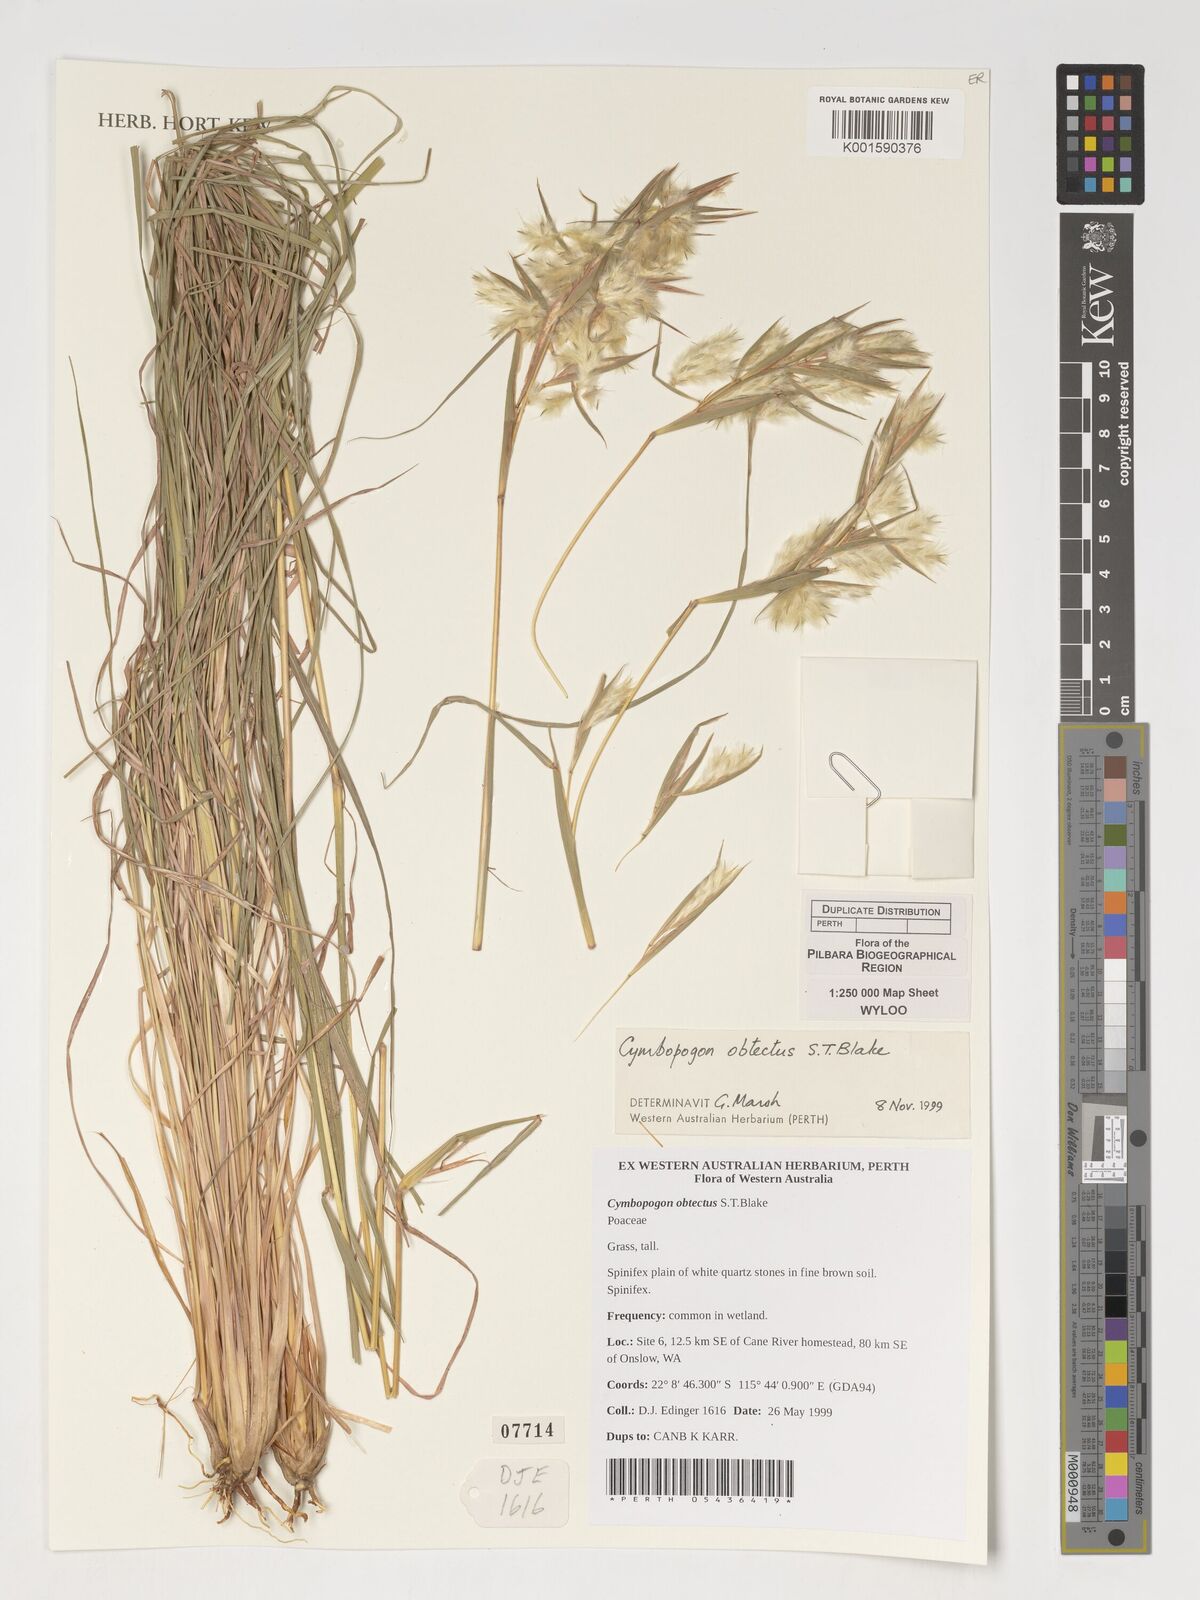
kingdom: Plantae
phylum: Tracheophyta
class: Liliopsida
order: Poales
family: Poaceae
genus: Cymbopogon
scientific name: Cymbopogon obtectus
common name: Silky heads
